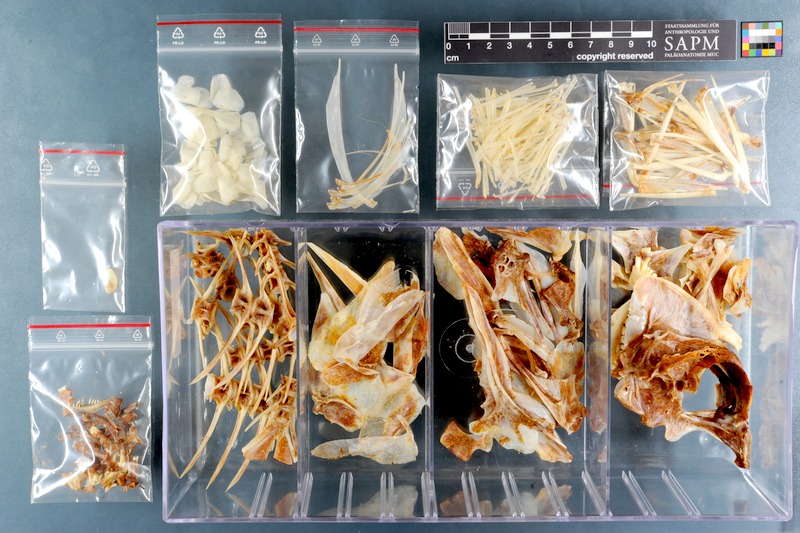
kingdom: Animalia
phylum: Chordata
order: Perciformes
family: Sparidae
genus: Chrysoblephus
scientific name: Chrysoblephus gibbiceps
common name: Red stumpnose
